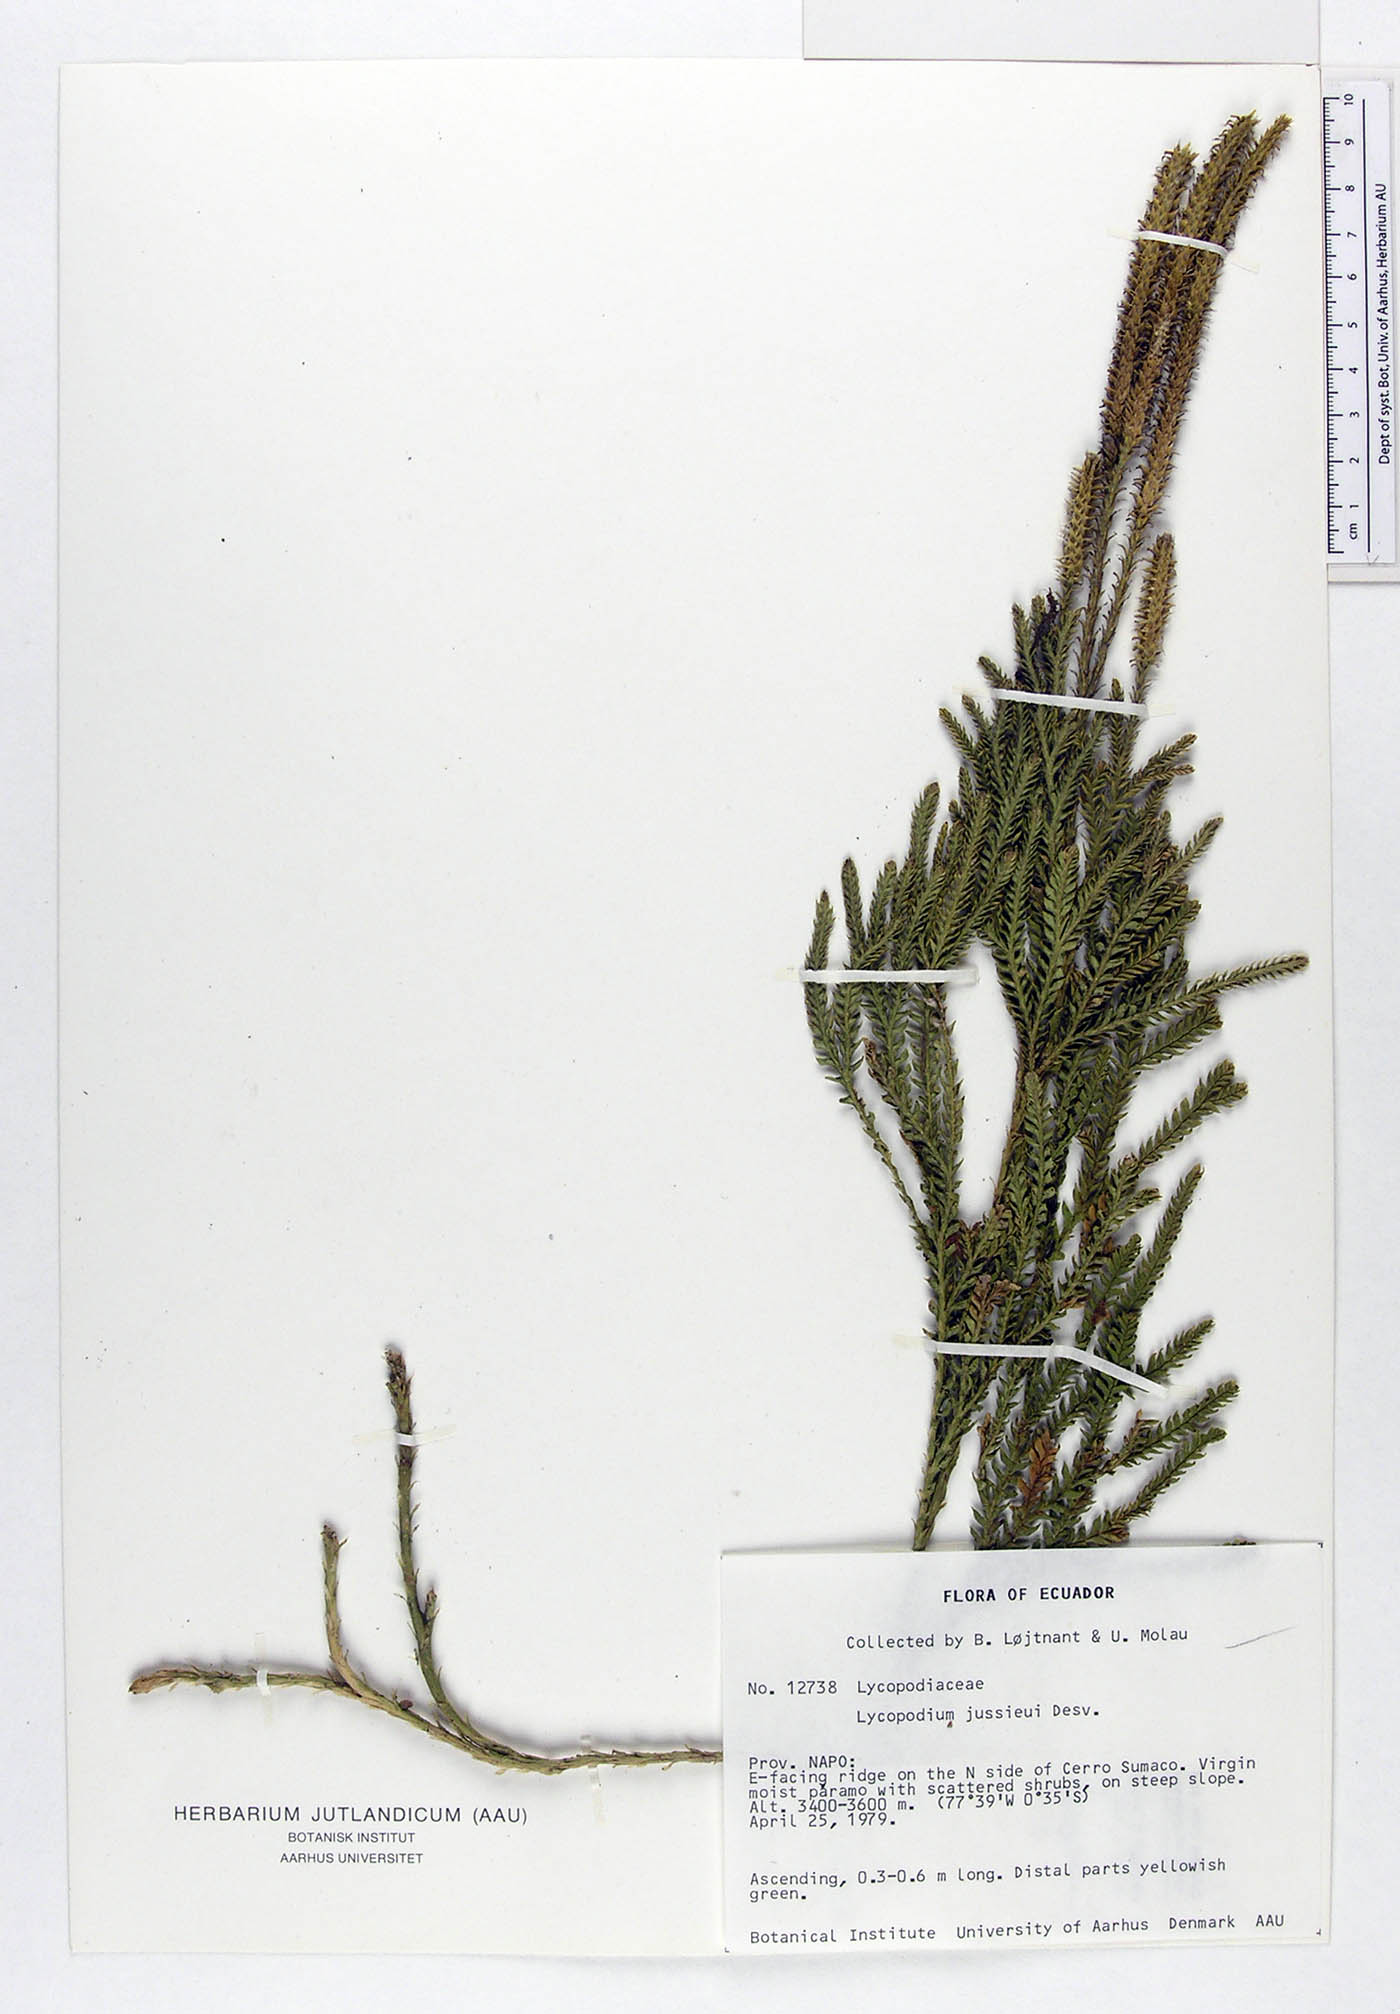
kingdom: Plantae
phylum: Tracheophyta
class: Lycopodiopsida
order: Lycopodiales
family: Lycopodiaceae
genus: Diphasium
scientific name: Diphasium jussiaei
